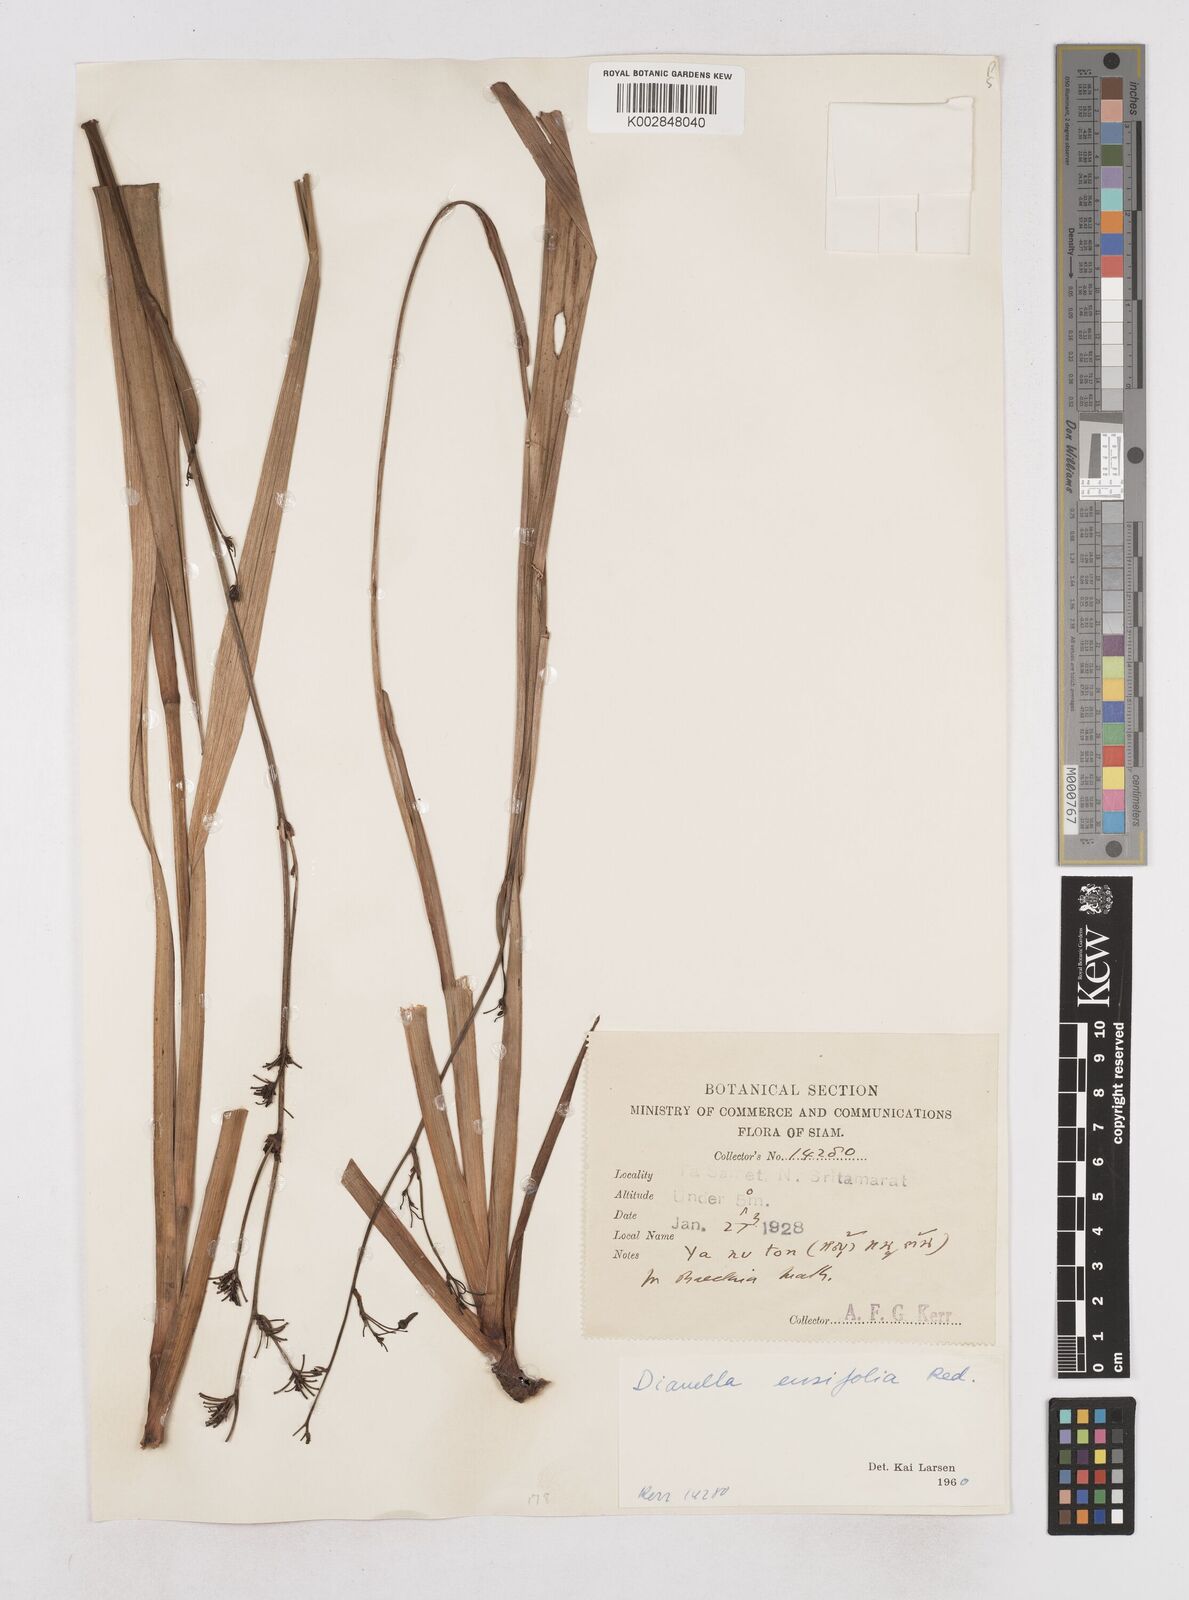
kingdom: Plantae
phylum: Tracheophyta
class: Liliopsida
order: Asparagales
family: Asphodelaceae
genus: Dianella
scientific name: Dianella ensifolia
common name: New zealand lilyplant
